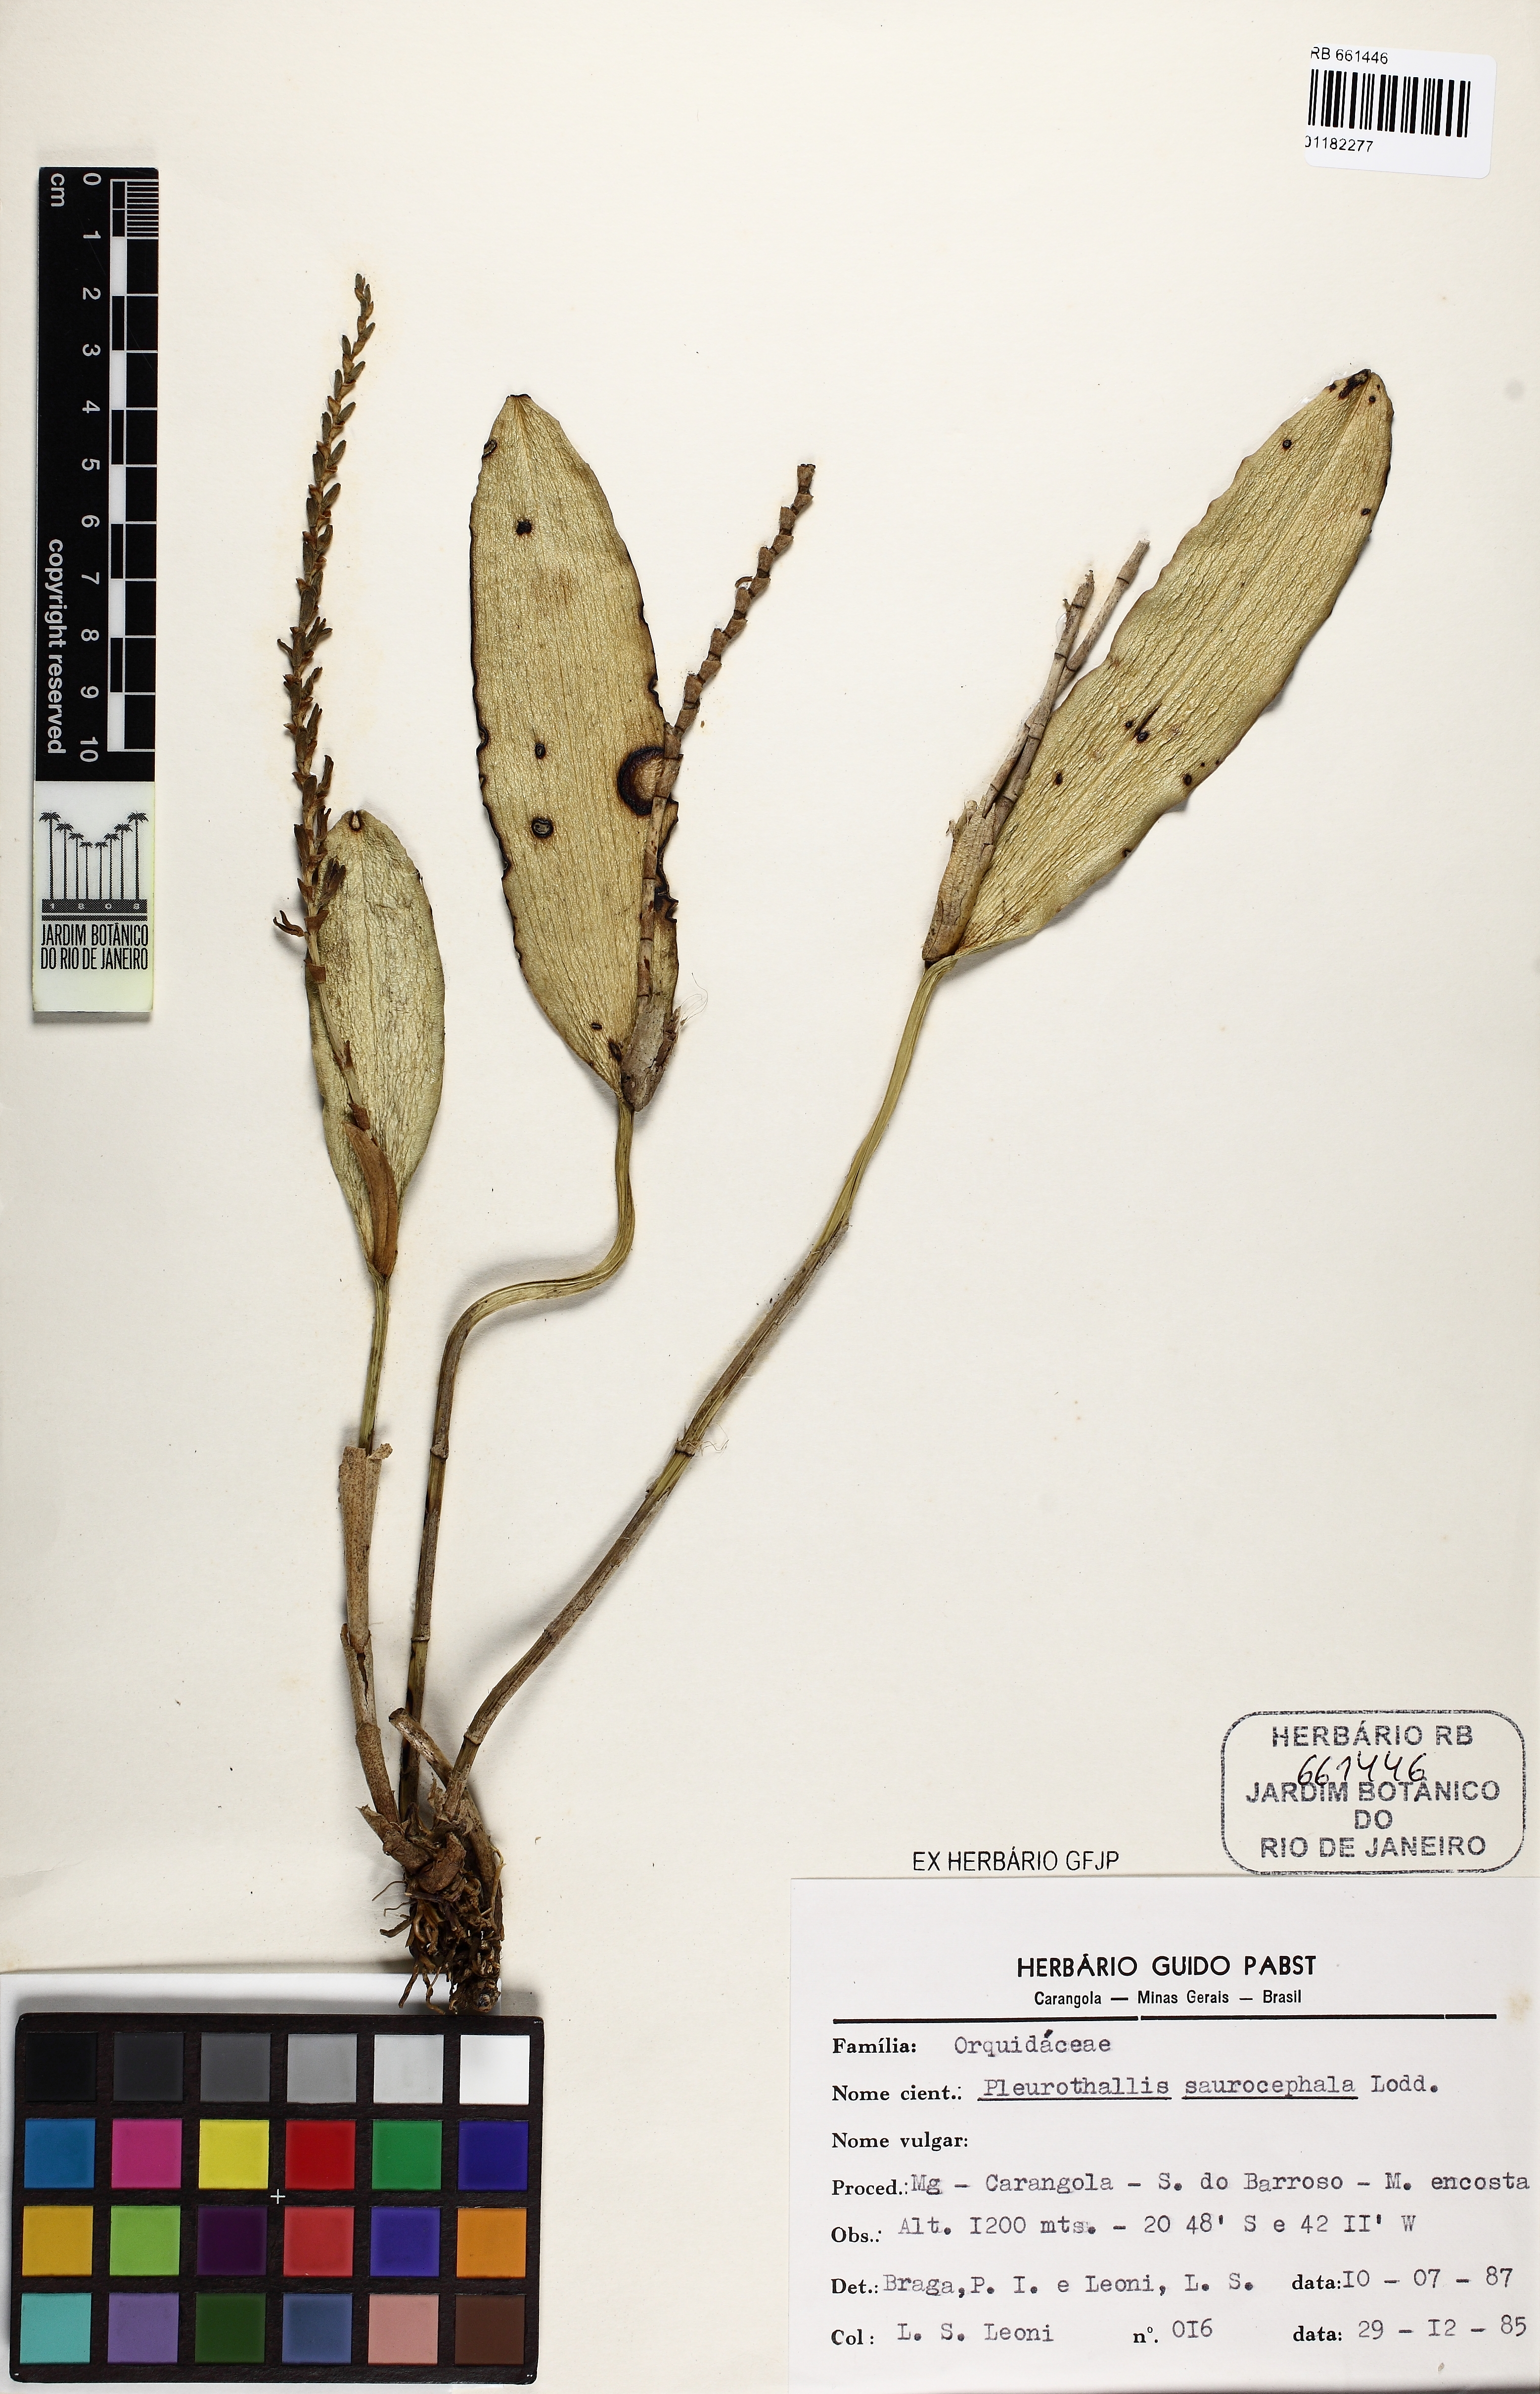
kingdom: Plantae
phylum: Tracheophyta
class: Liliopsida
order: Asparagales
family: Orchidaceae
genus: Acianthera
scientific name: Acianthera saurocephala
